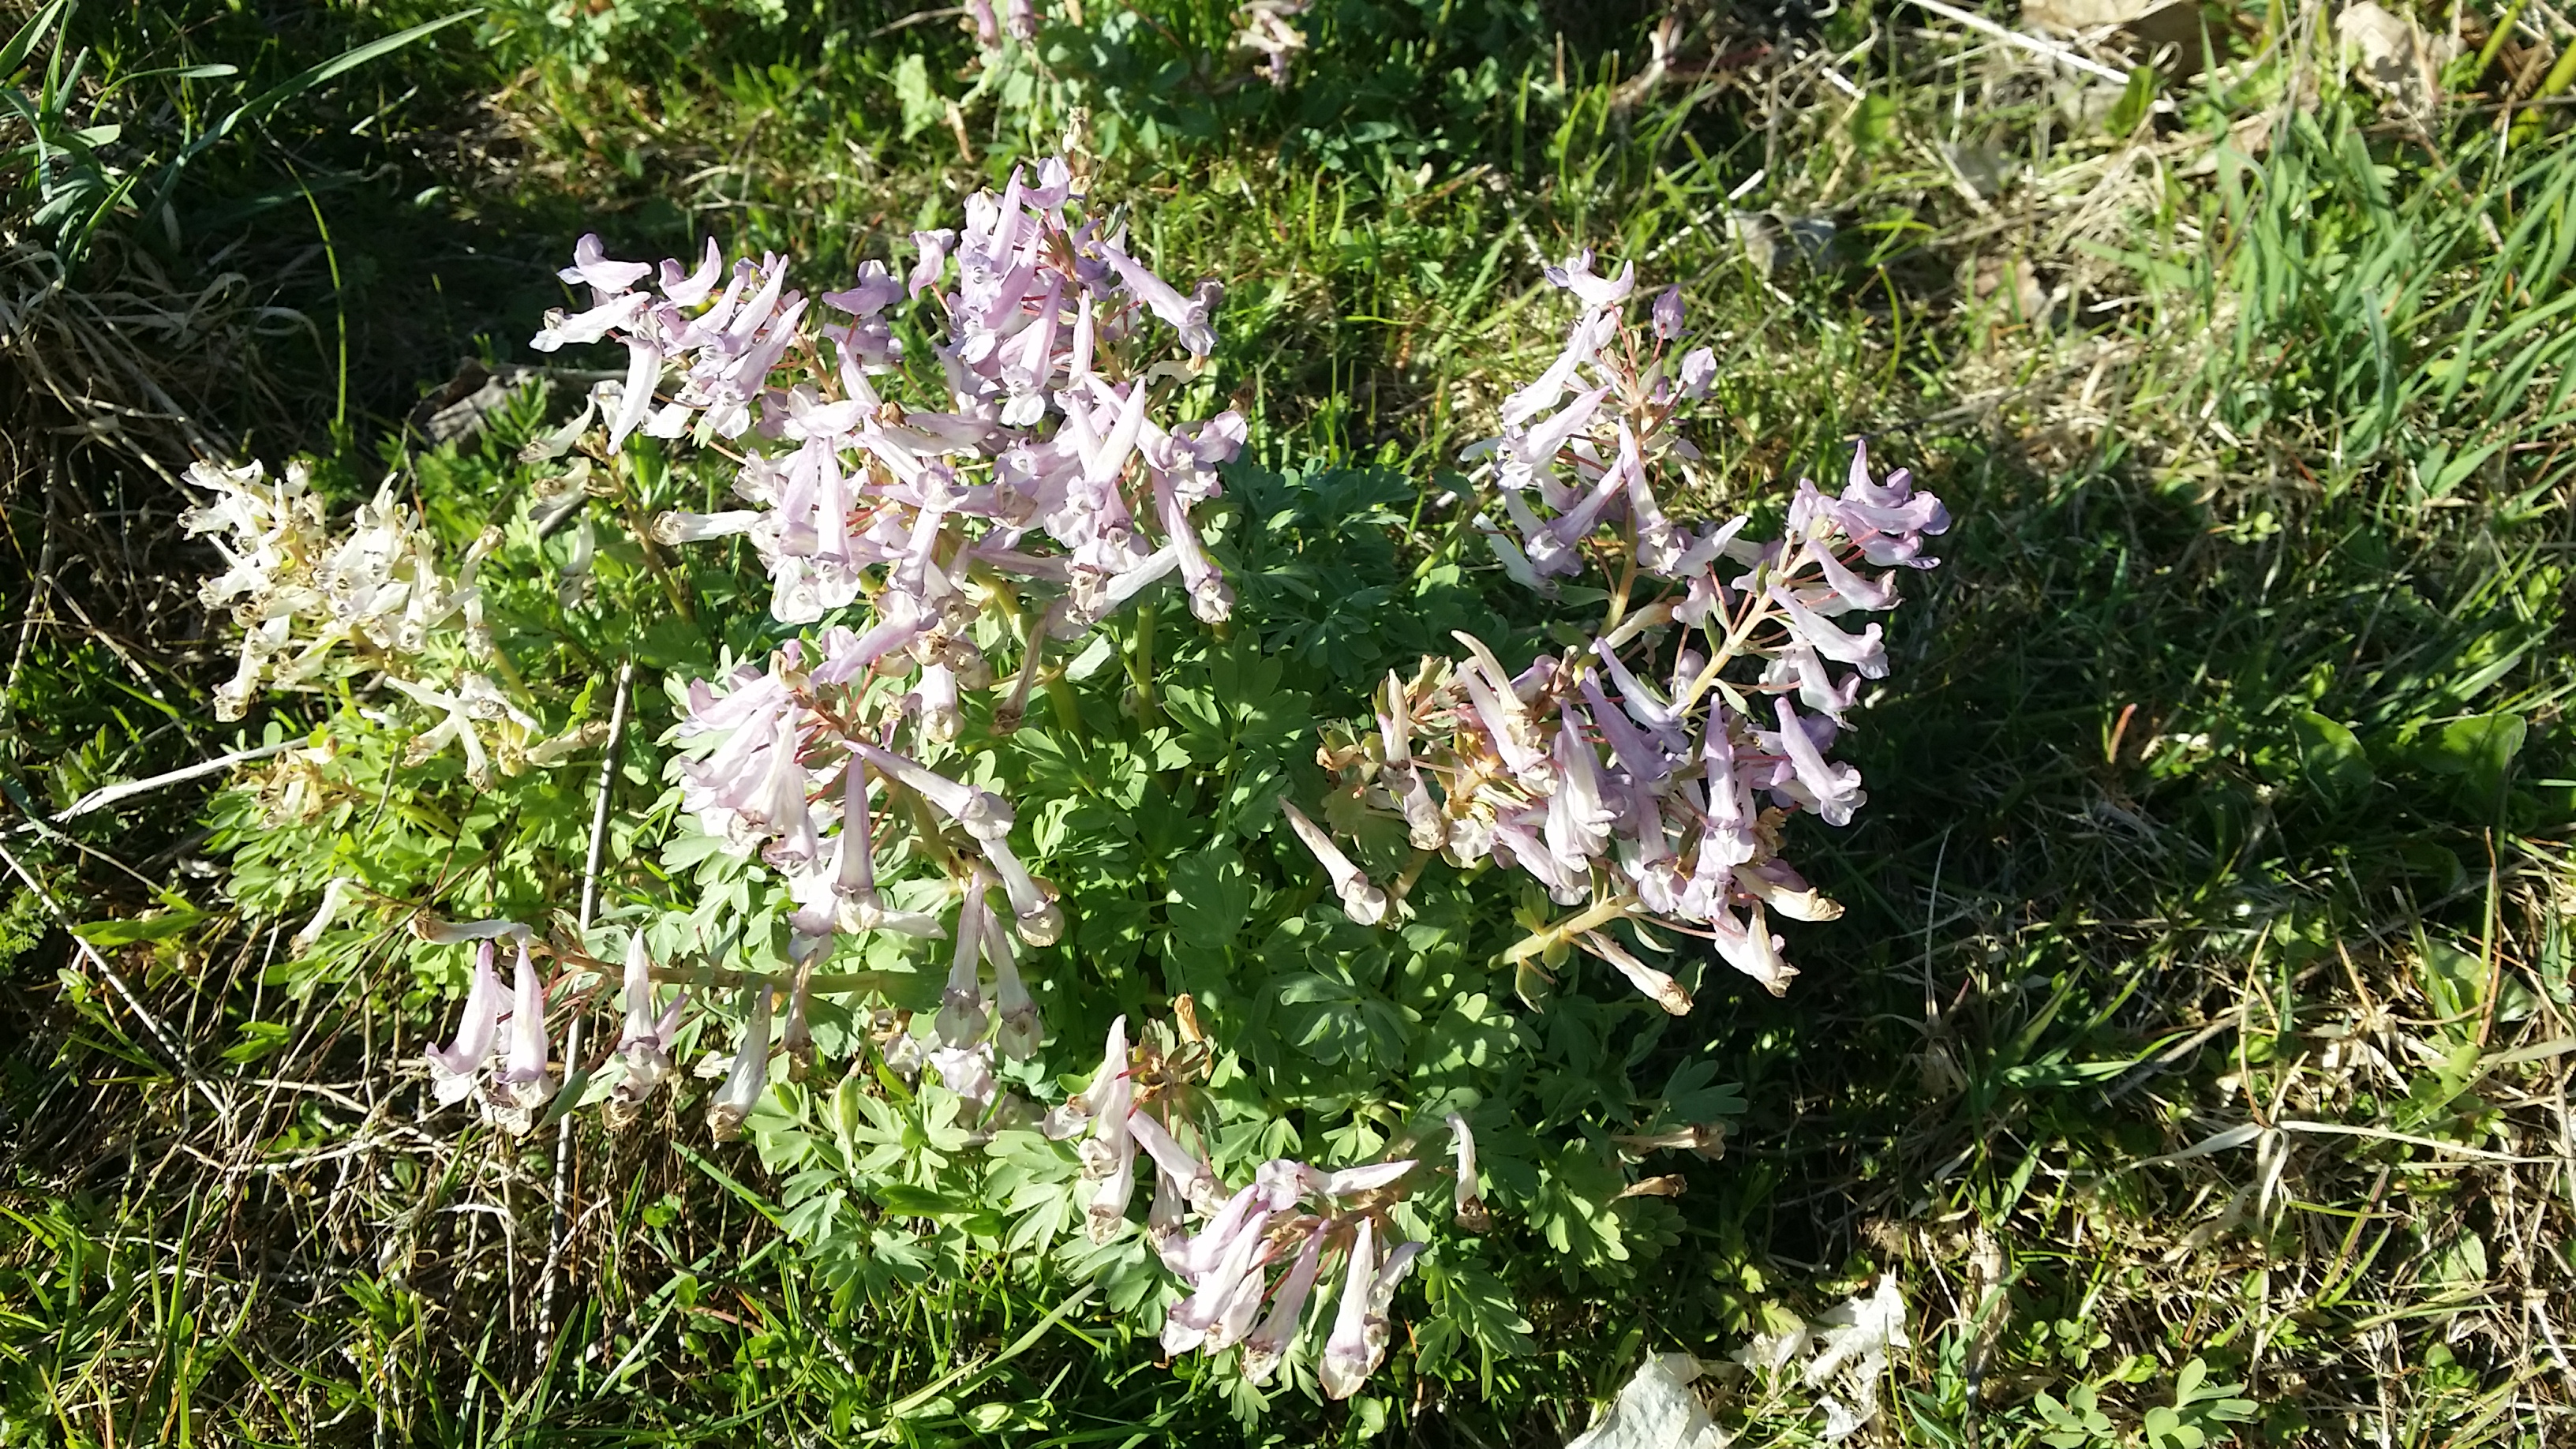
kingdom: Plantae
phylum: Tracheophyta
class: Magnoliopsida
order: Ranunculales
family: Papaveraceae
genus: Corydalis
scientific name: Corydalis solida
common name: Langstilket lærkespore
